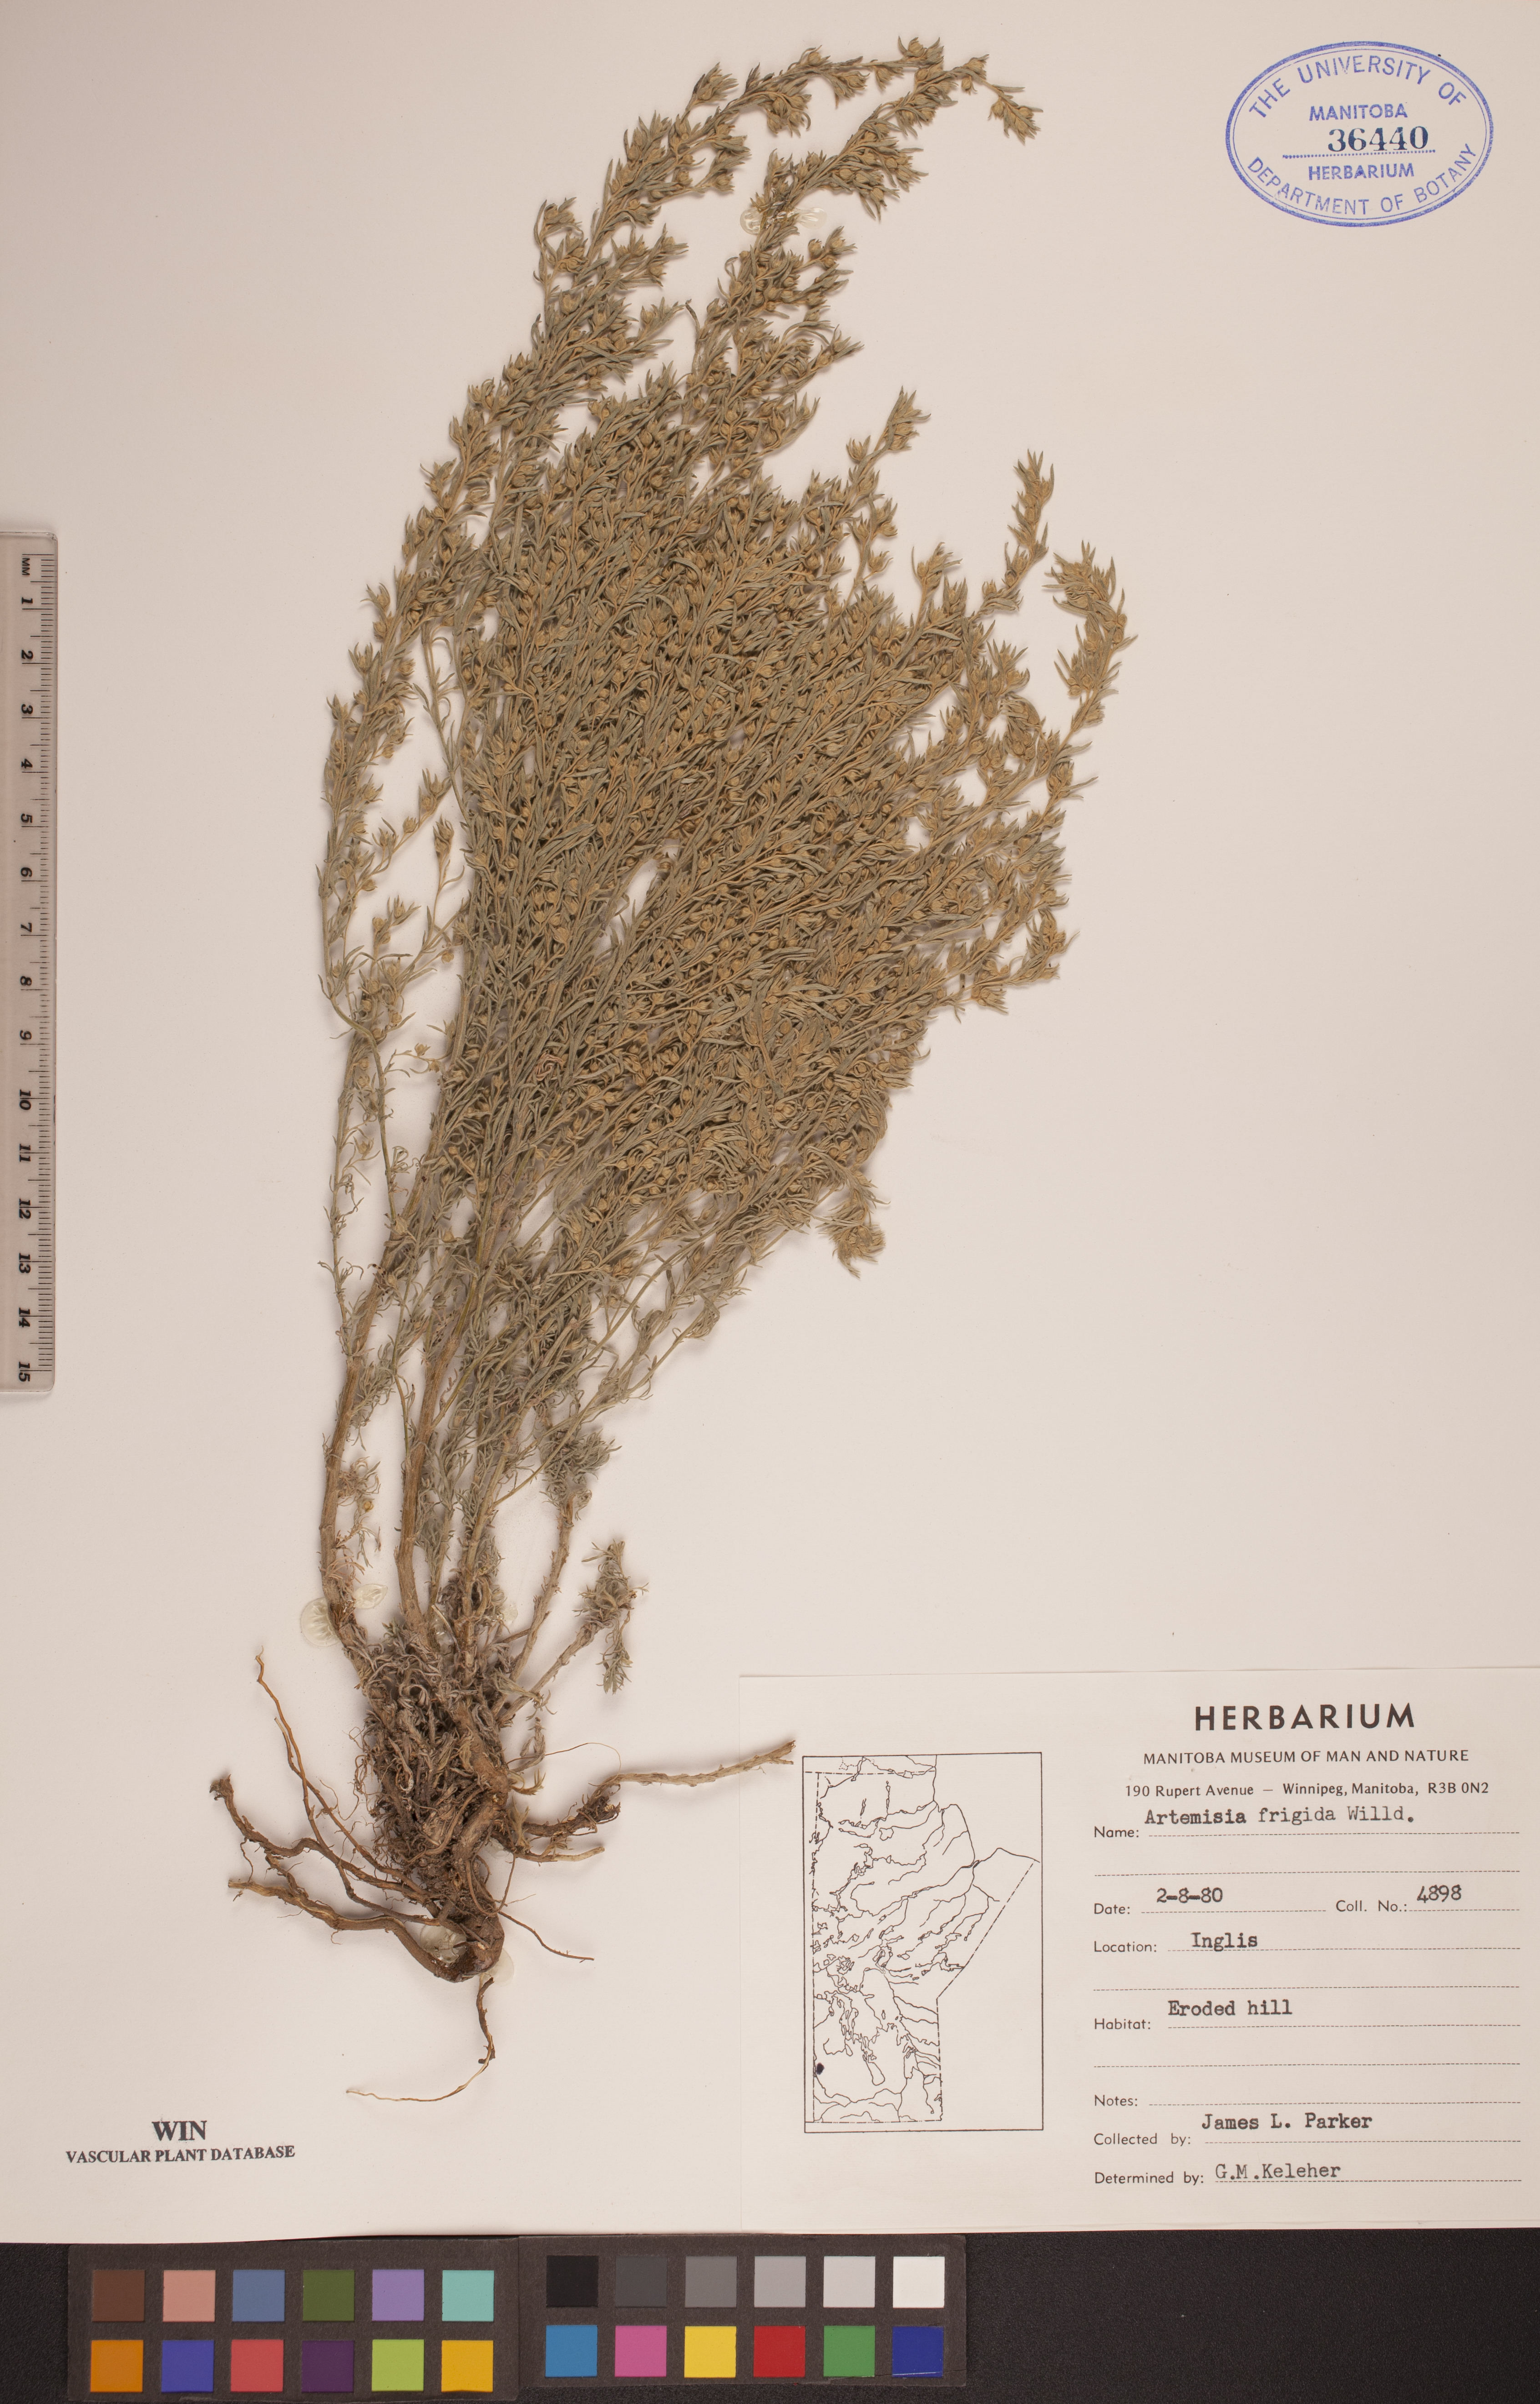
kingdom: Plantae
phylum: Tracheophyta
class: Magnoliopsida
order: Asterales
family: Asteraceae
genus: Artemisia
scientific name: Artemisia frigida
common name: Prairie sagewort
